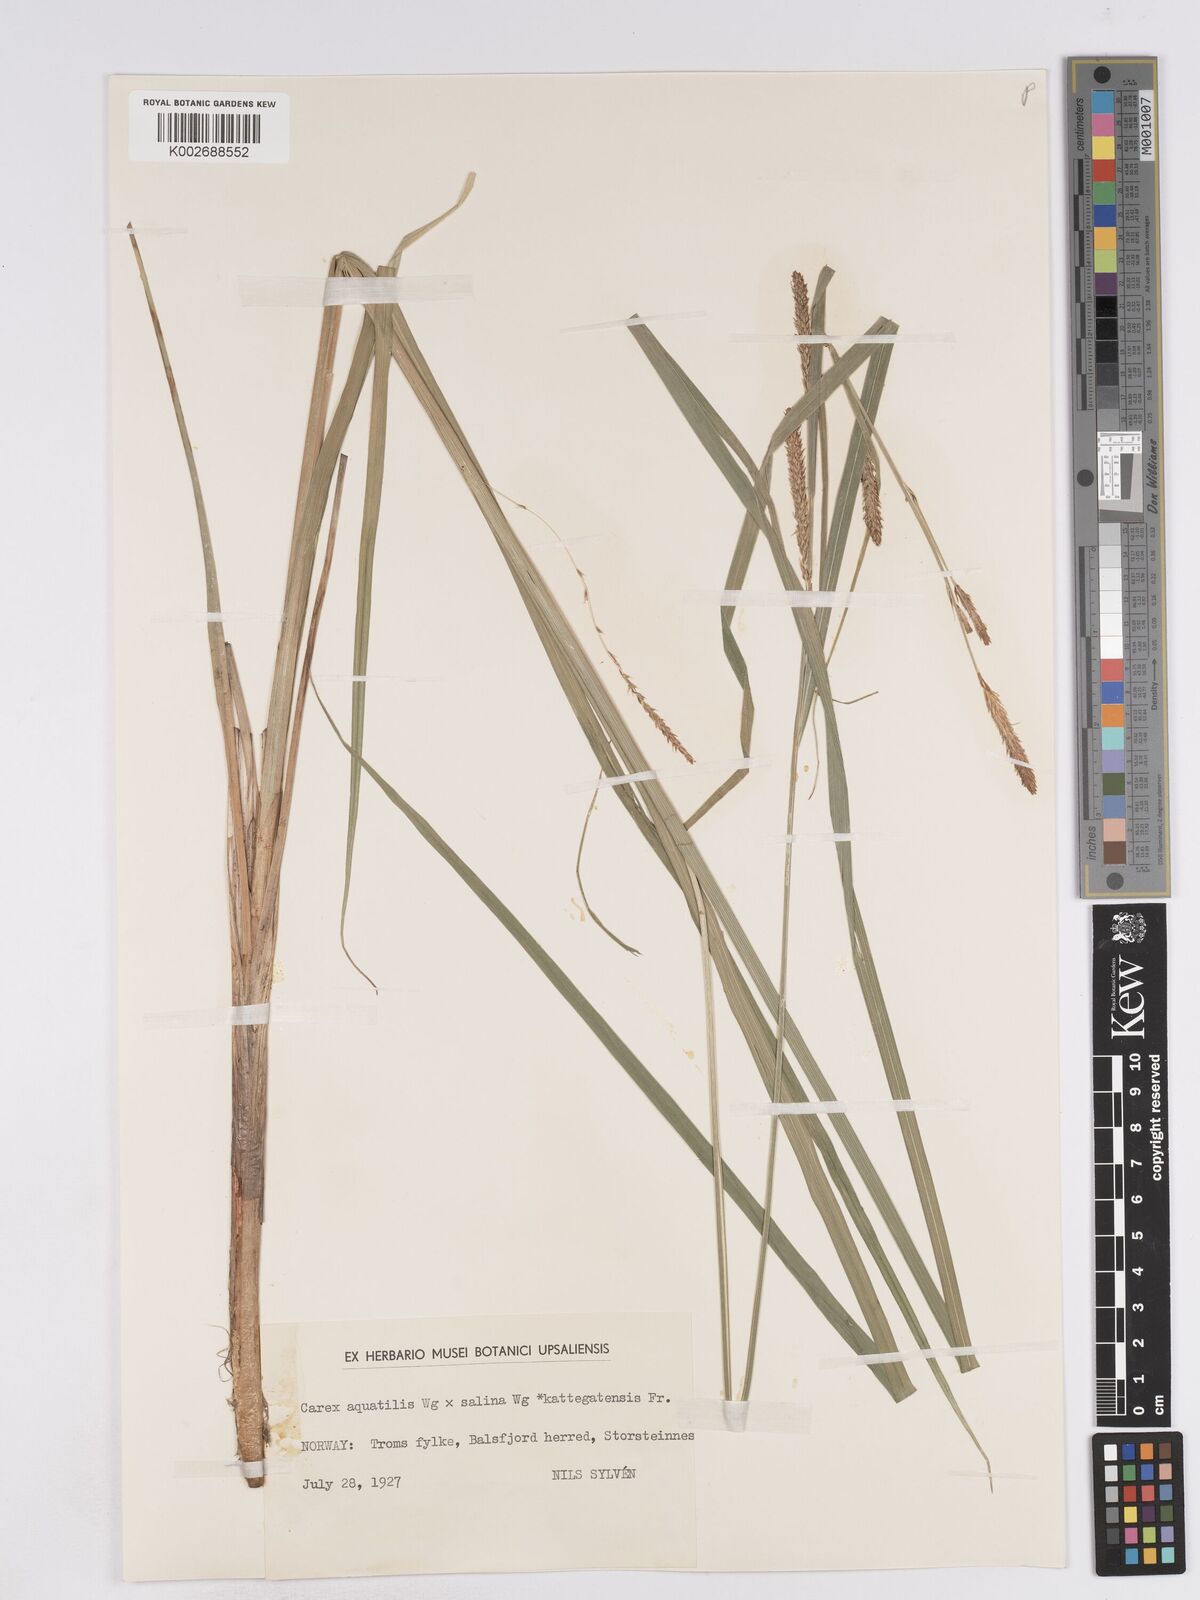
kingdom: Plantae
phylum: Tracheophyta
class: Liliopsida
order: Poales
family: Cyperaceae
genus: Carex
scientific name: Carex recta
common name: Estuarine sedge
